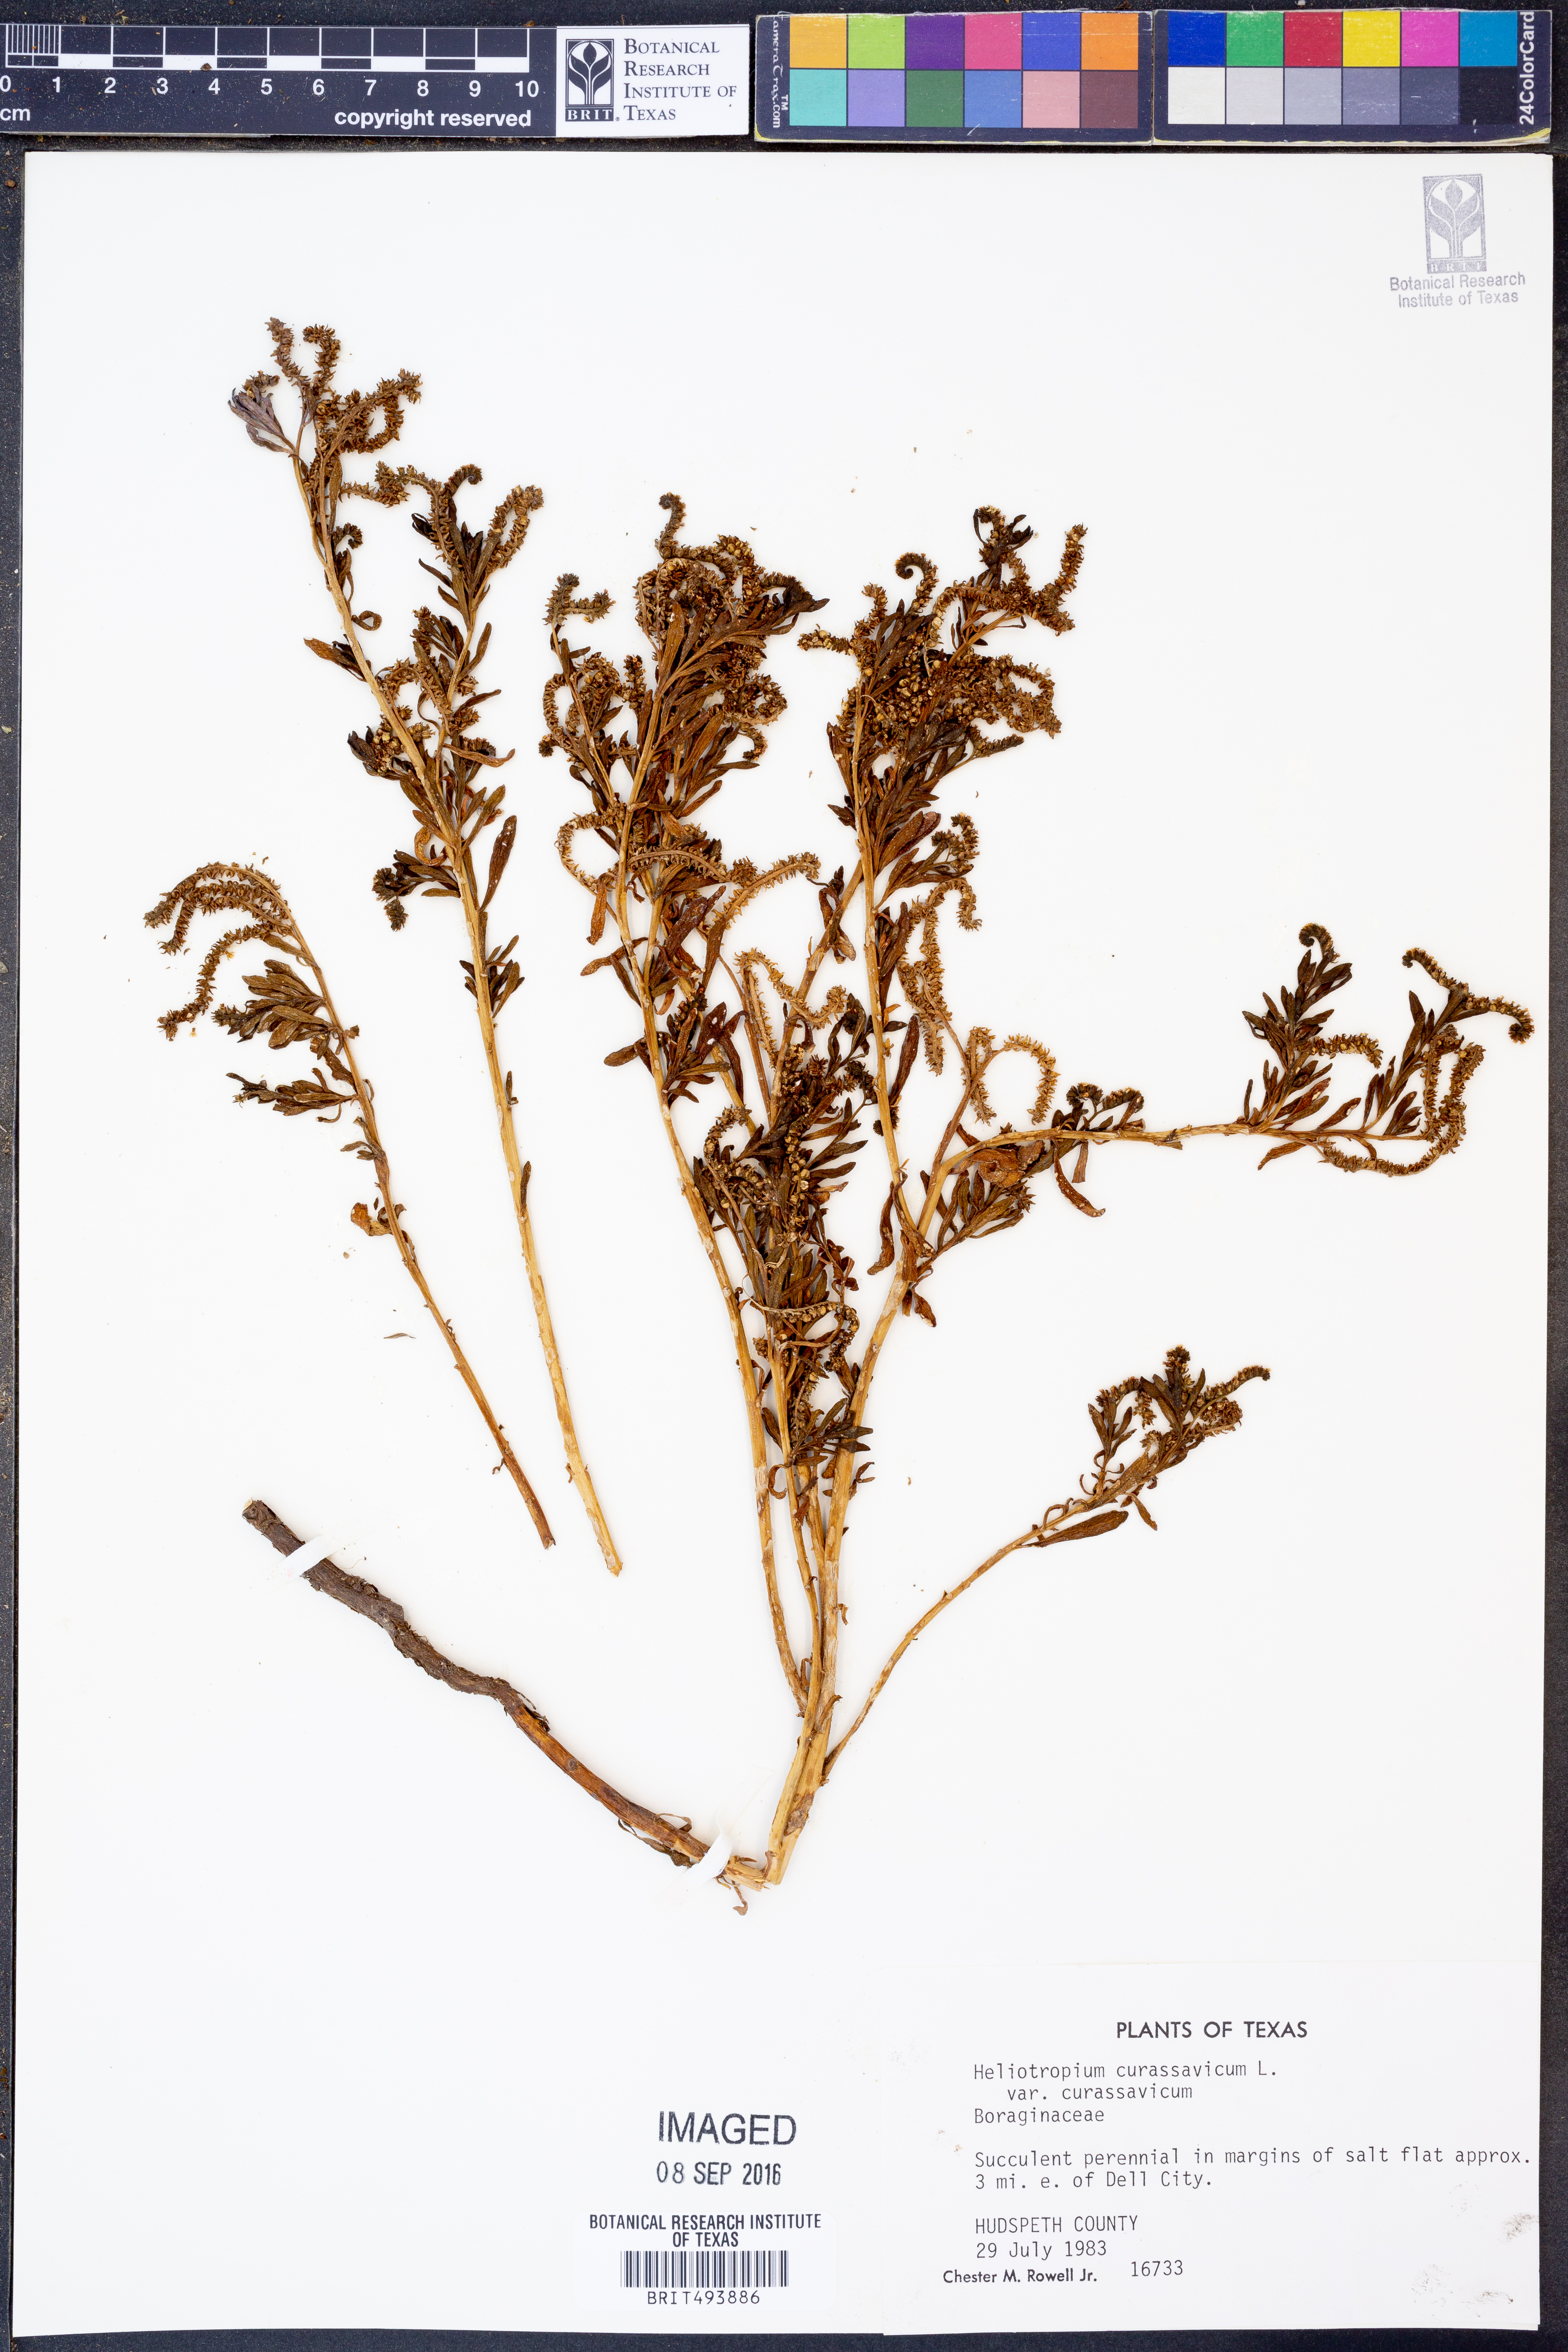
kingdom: Plantae
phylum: Tracheophyta
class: Magnoliopsida
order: Boraginales
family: Heliotropiaceae
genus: Heliotropium
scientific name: Heliotropium curassavicum
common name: Seaside heliotrope
